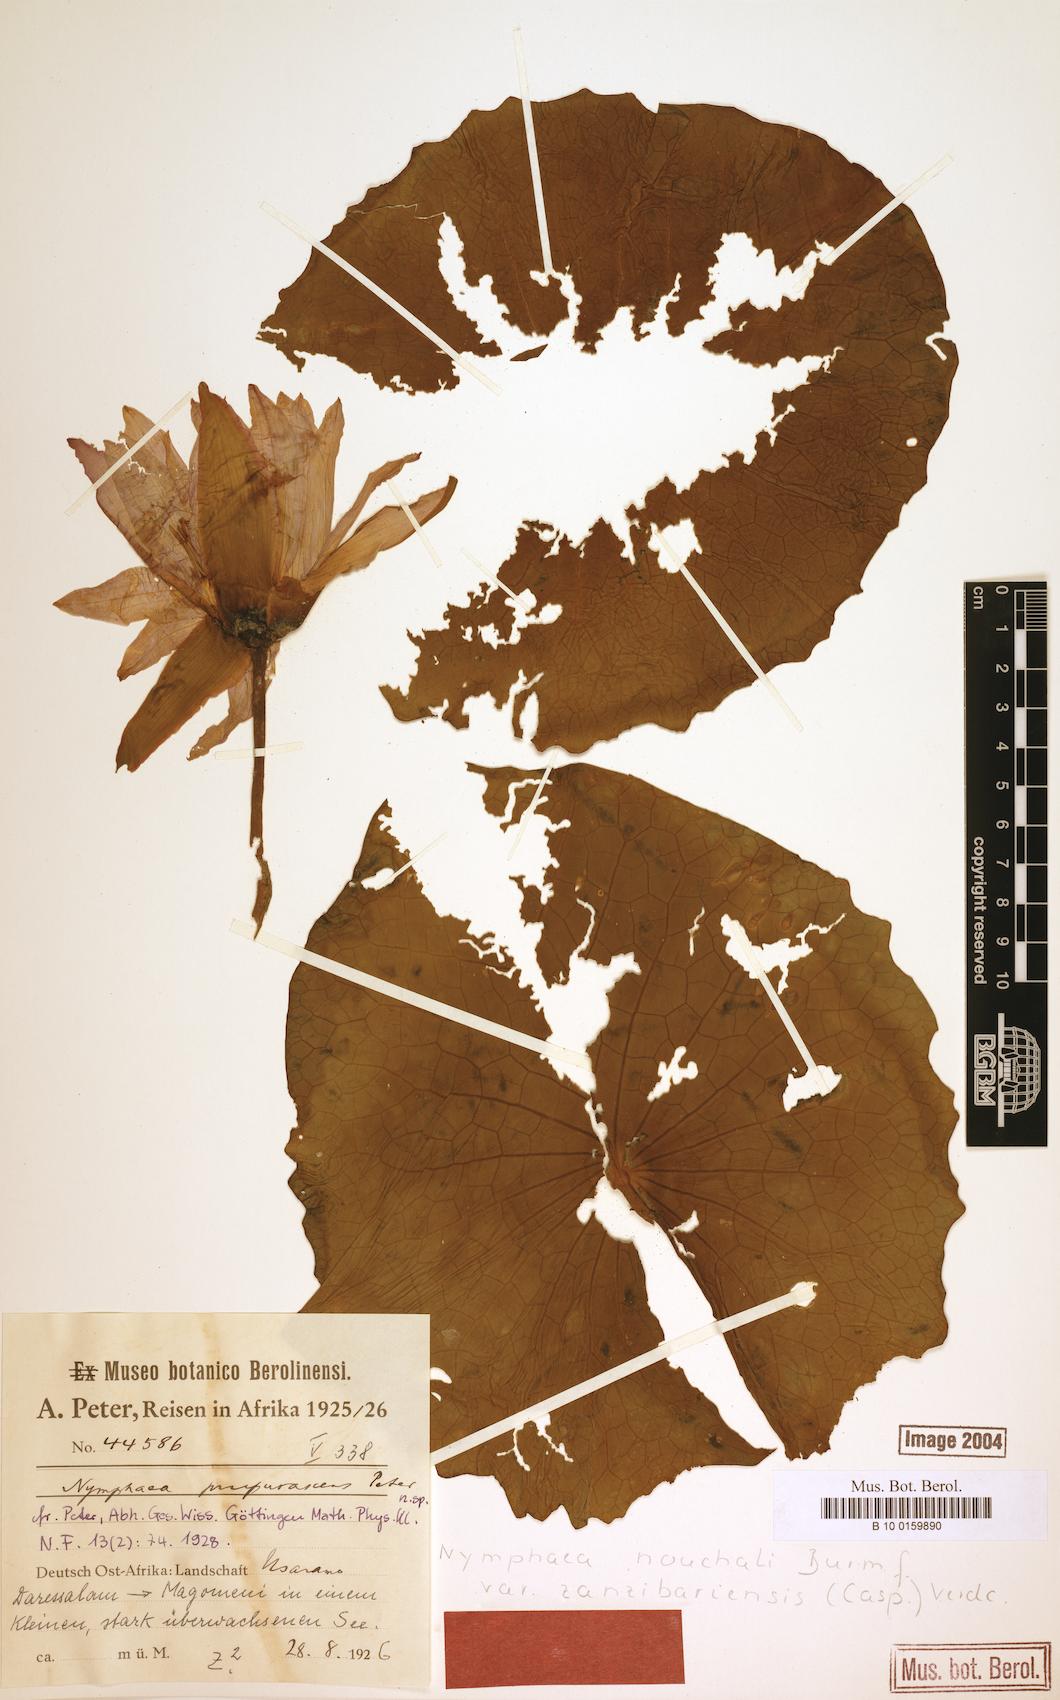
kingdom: Plantae
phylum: Tracheophyta
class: Magnoliopsida
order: Nymphaeales
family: Nymphaeaceae
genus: Nymphaea
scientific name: Nymphaea nouchali
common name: Blue lotus
